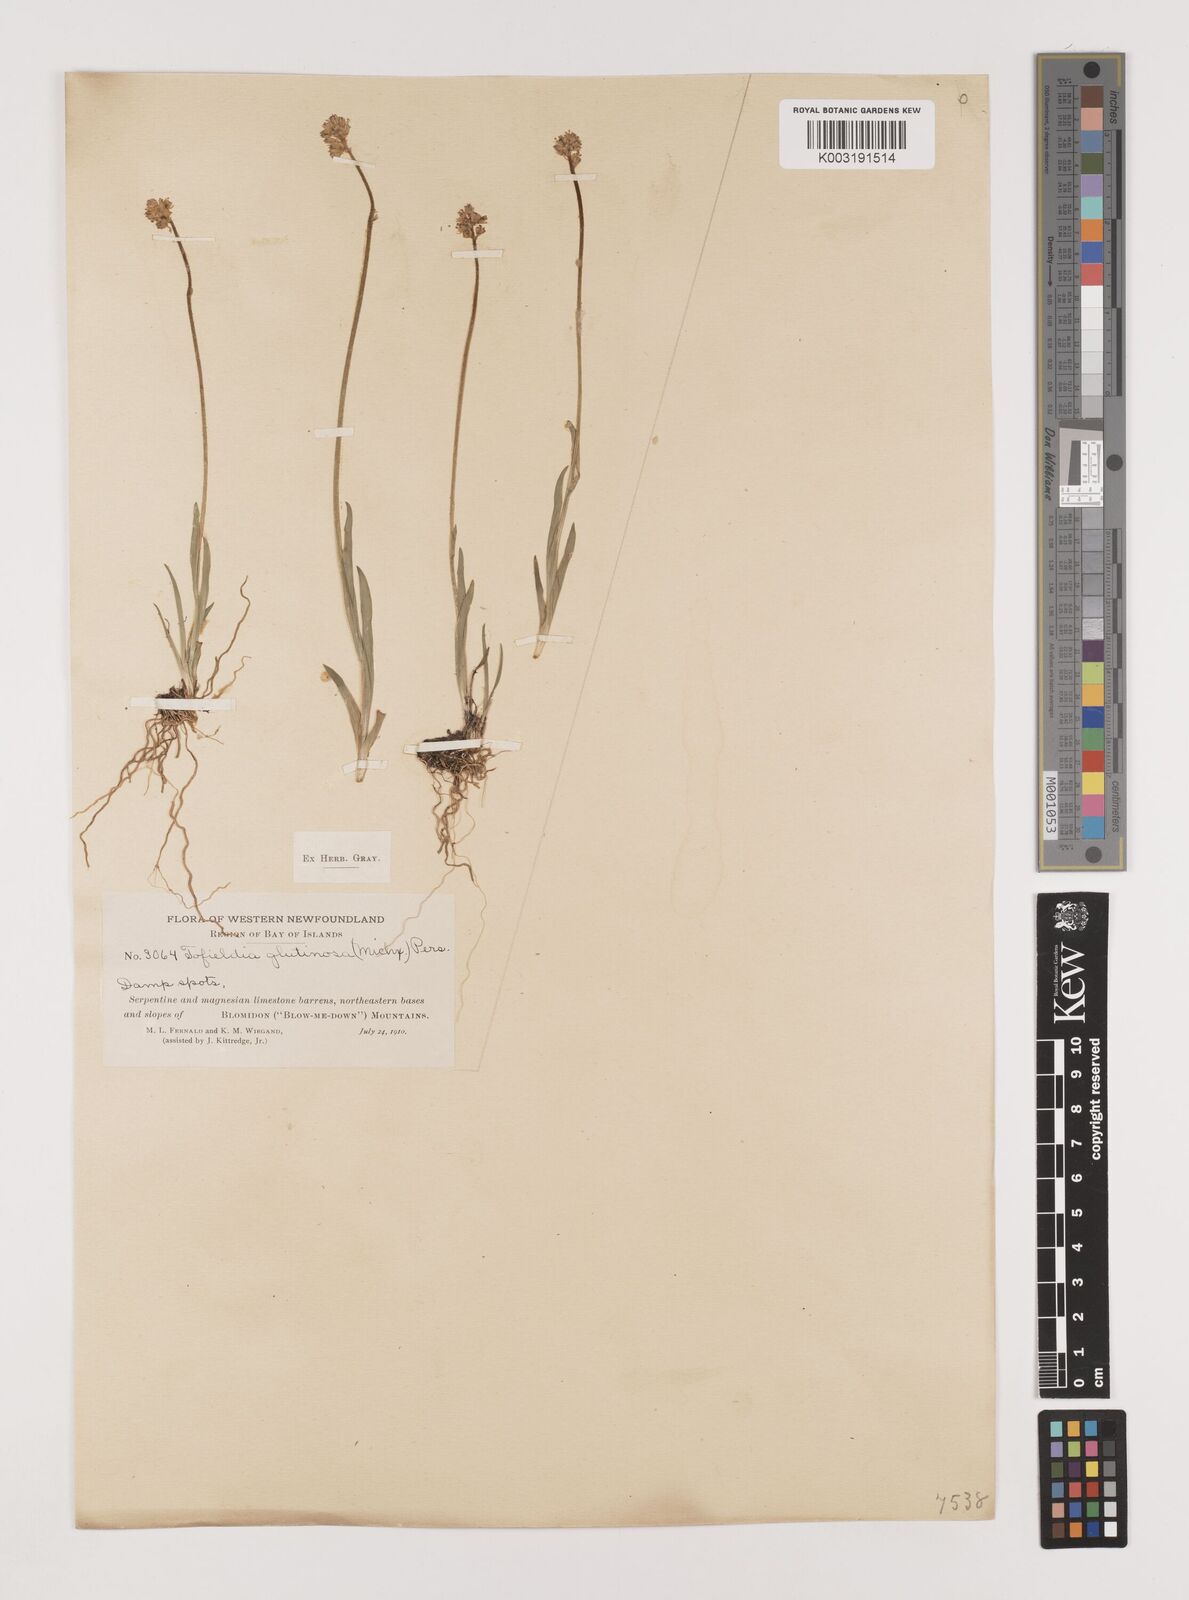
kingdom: Plantae
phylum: Tracheophyta
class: Liliopsida
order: Alismatales
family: Tofieldiaceae
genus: Triantha
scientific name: Triantha glutinosa
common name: Glutinous tofieldia
